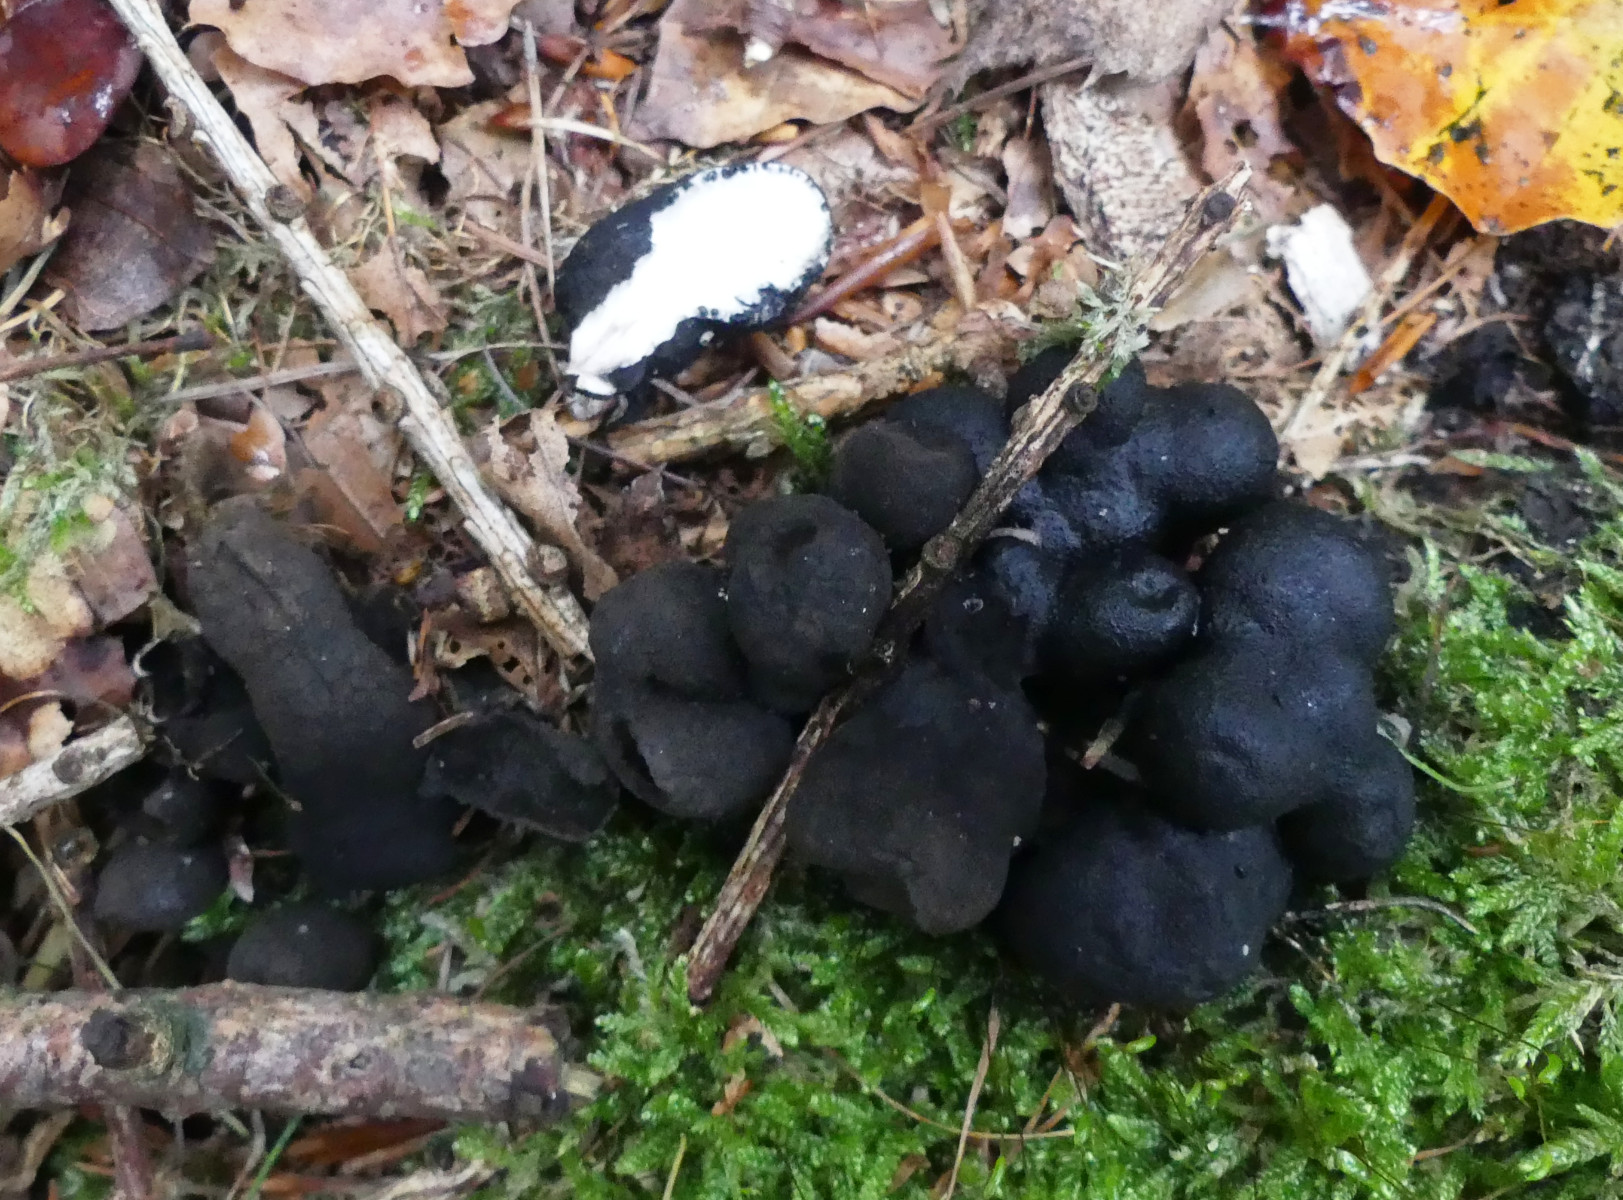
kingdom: Fungi
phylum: Ascomycota
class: Sordariomycetes
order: Xylariales
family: Xylariaceae
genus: Xylaria
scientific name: Xylaria polymorpha
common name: kølle-stødsvamp
